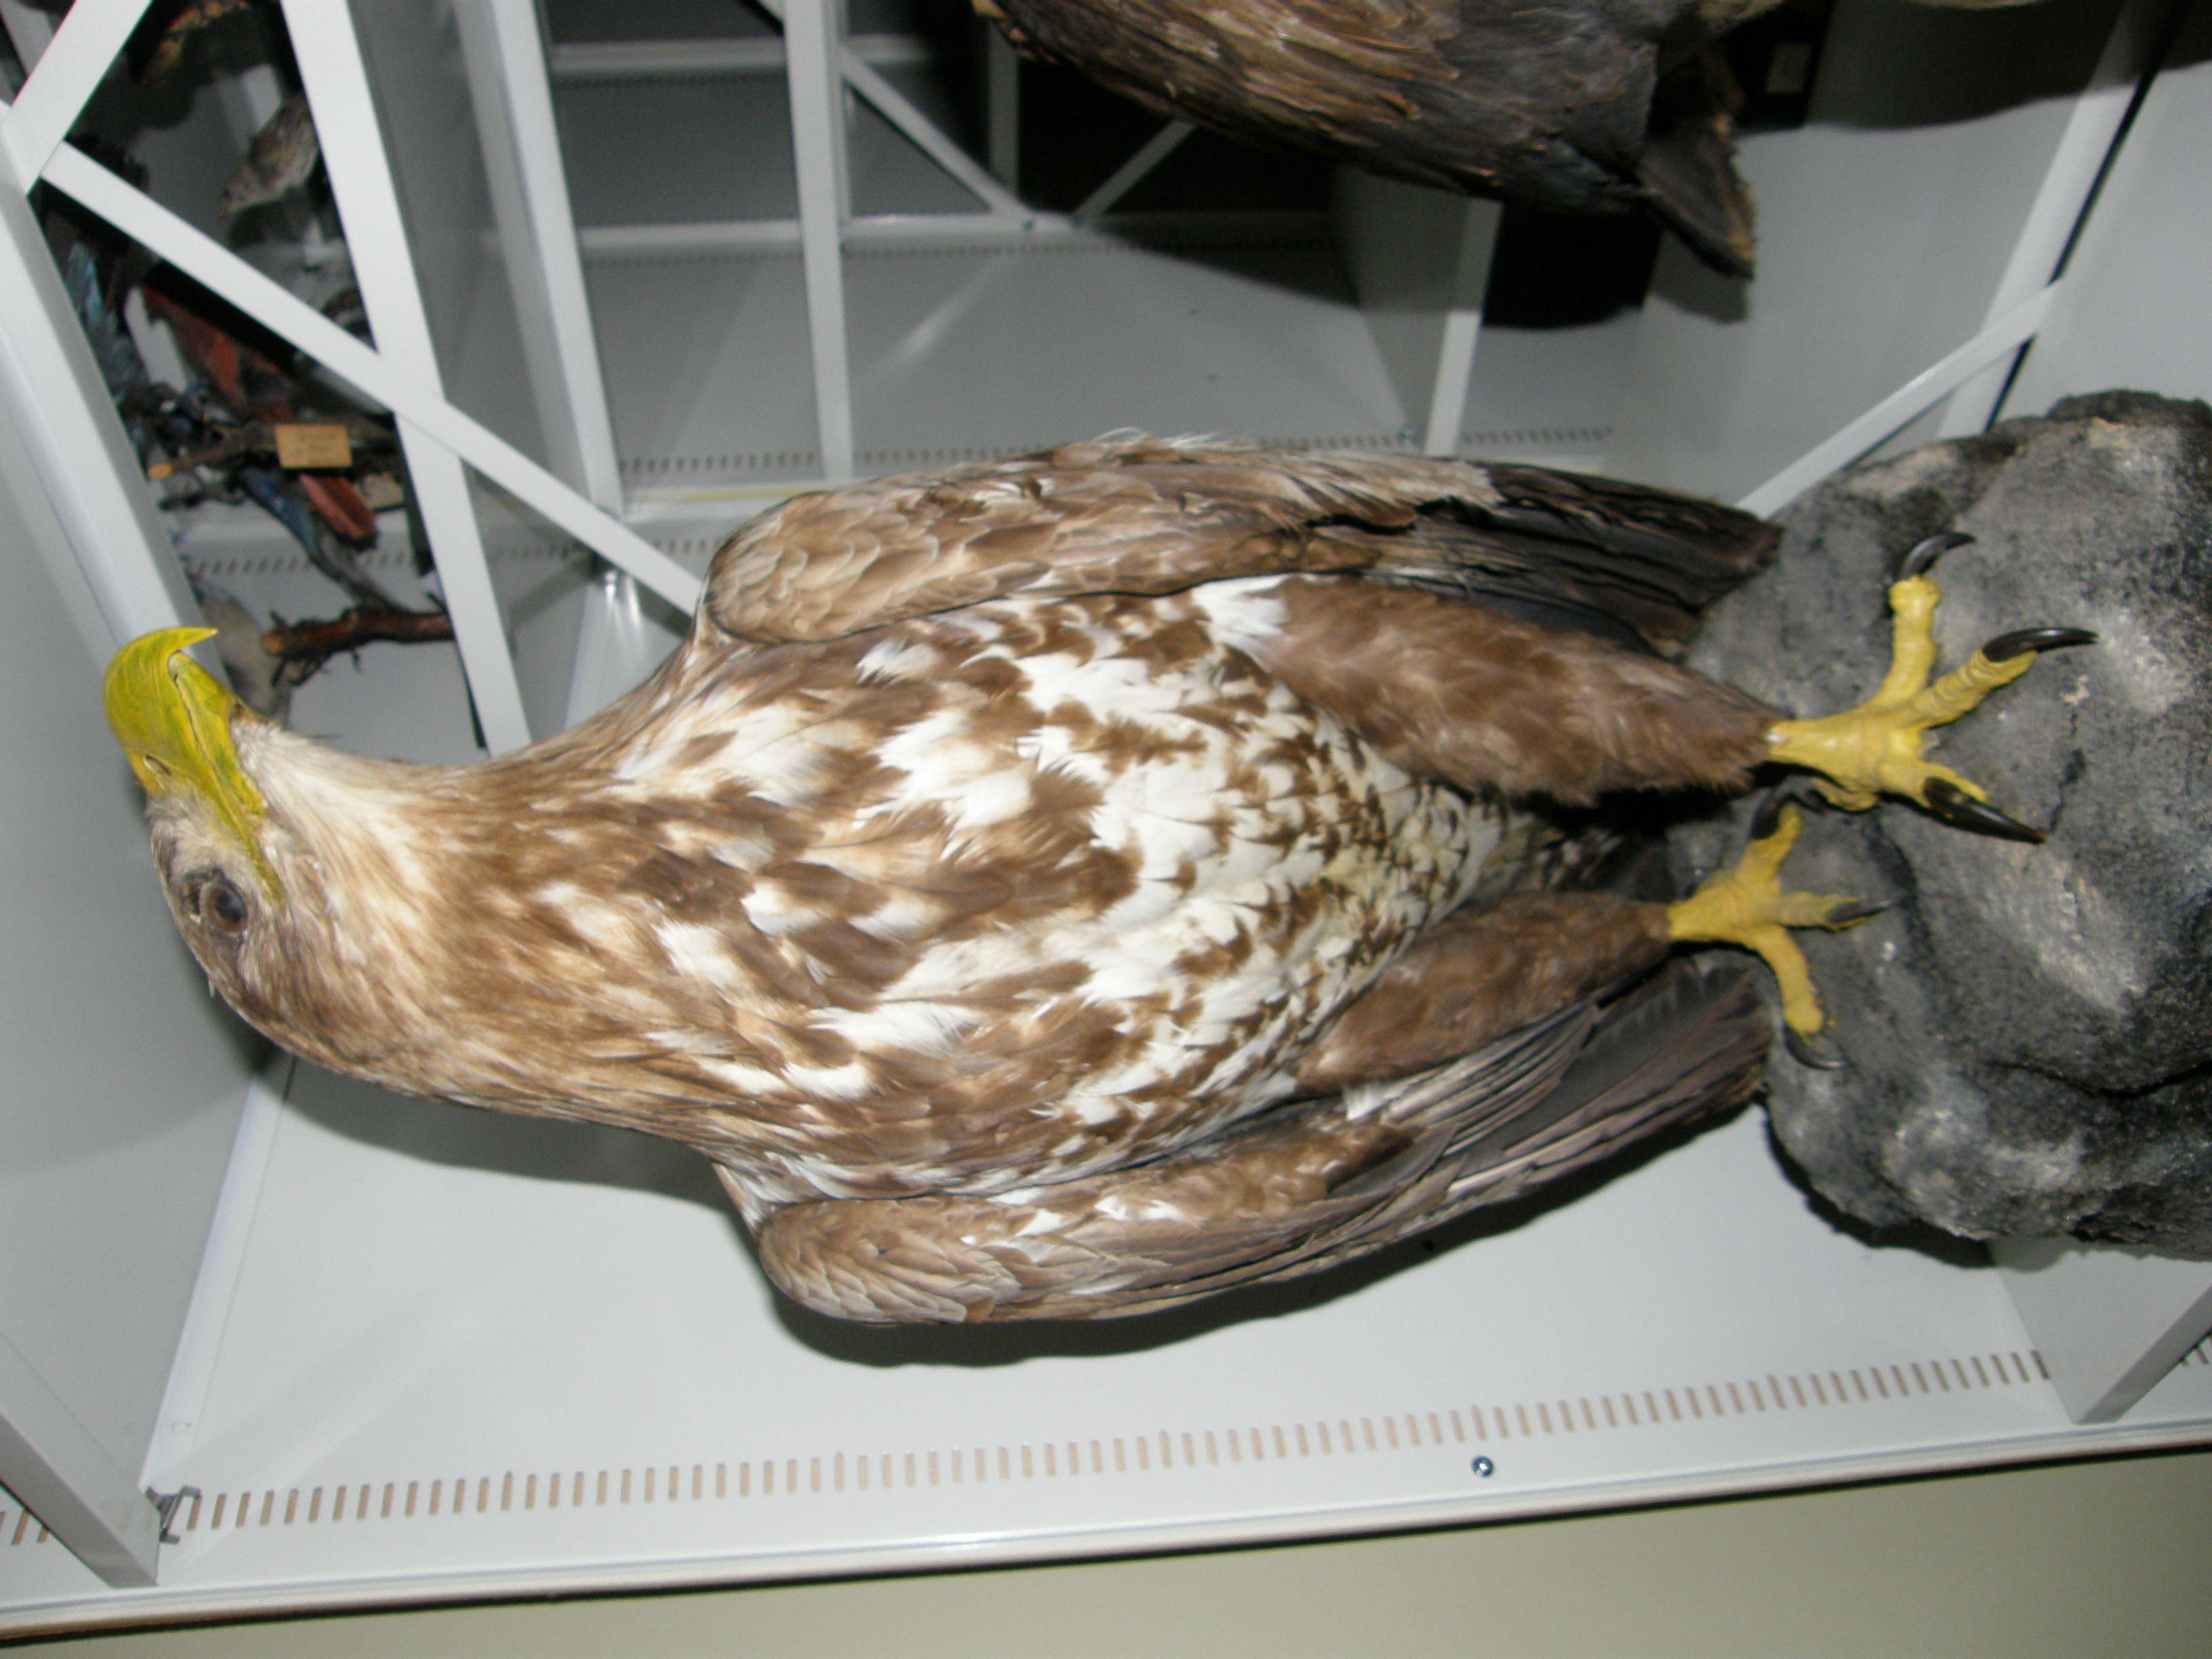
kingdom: Animalia
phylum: Chordata
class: Aves
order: Accipitriformes
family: Accipitridae
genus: Haliaeetus
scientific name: Haliaeetus albicilla
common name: White-tailed eagle
